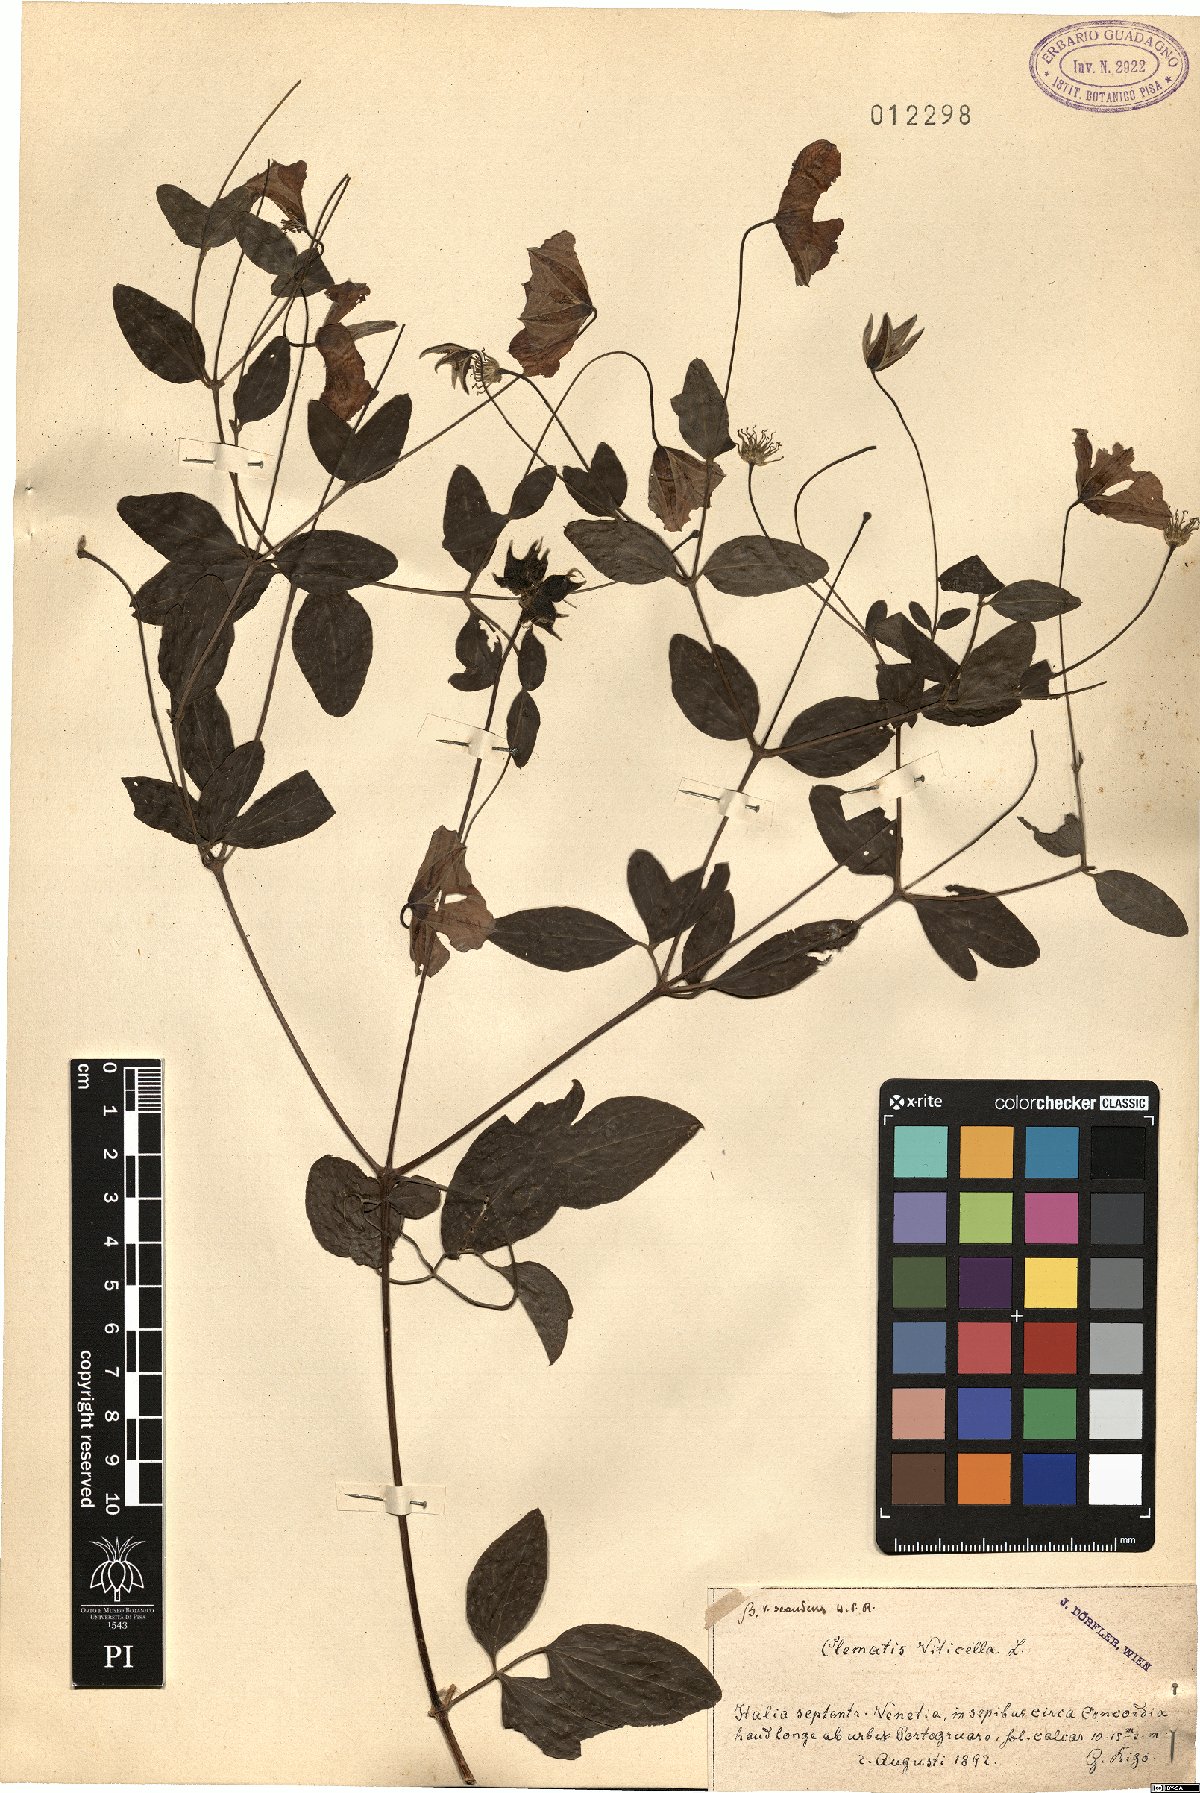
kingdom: Plantae
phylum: Tracheophyta
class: Magnoliopsida
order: Ranunculales
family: Ranunculaceae
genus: Clematis
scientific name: Clematis viticella
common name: Purple clematis
